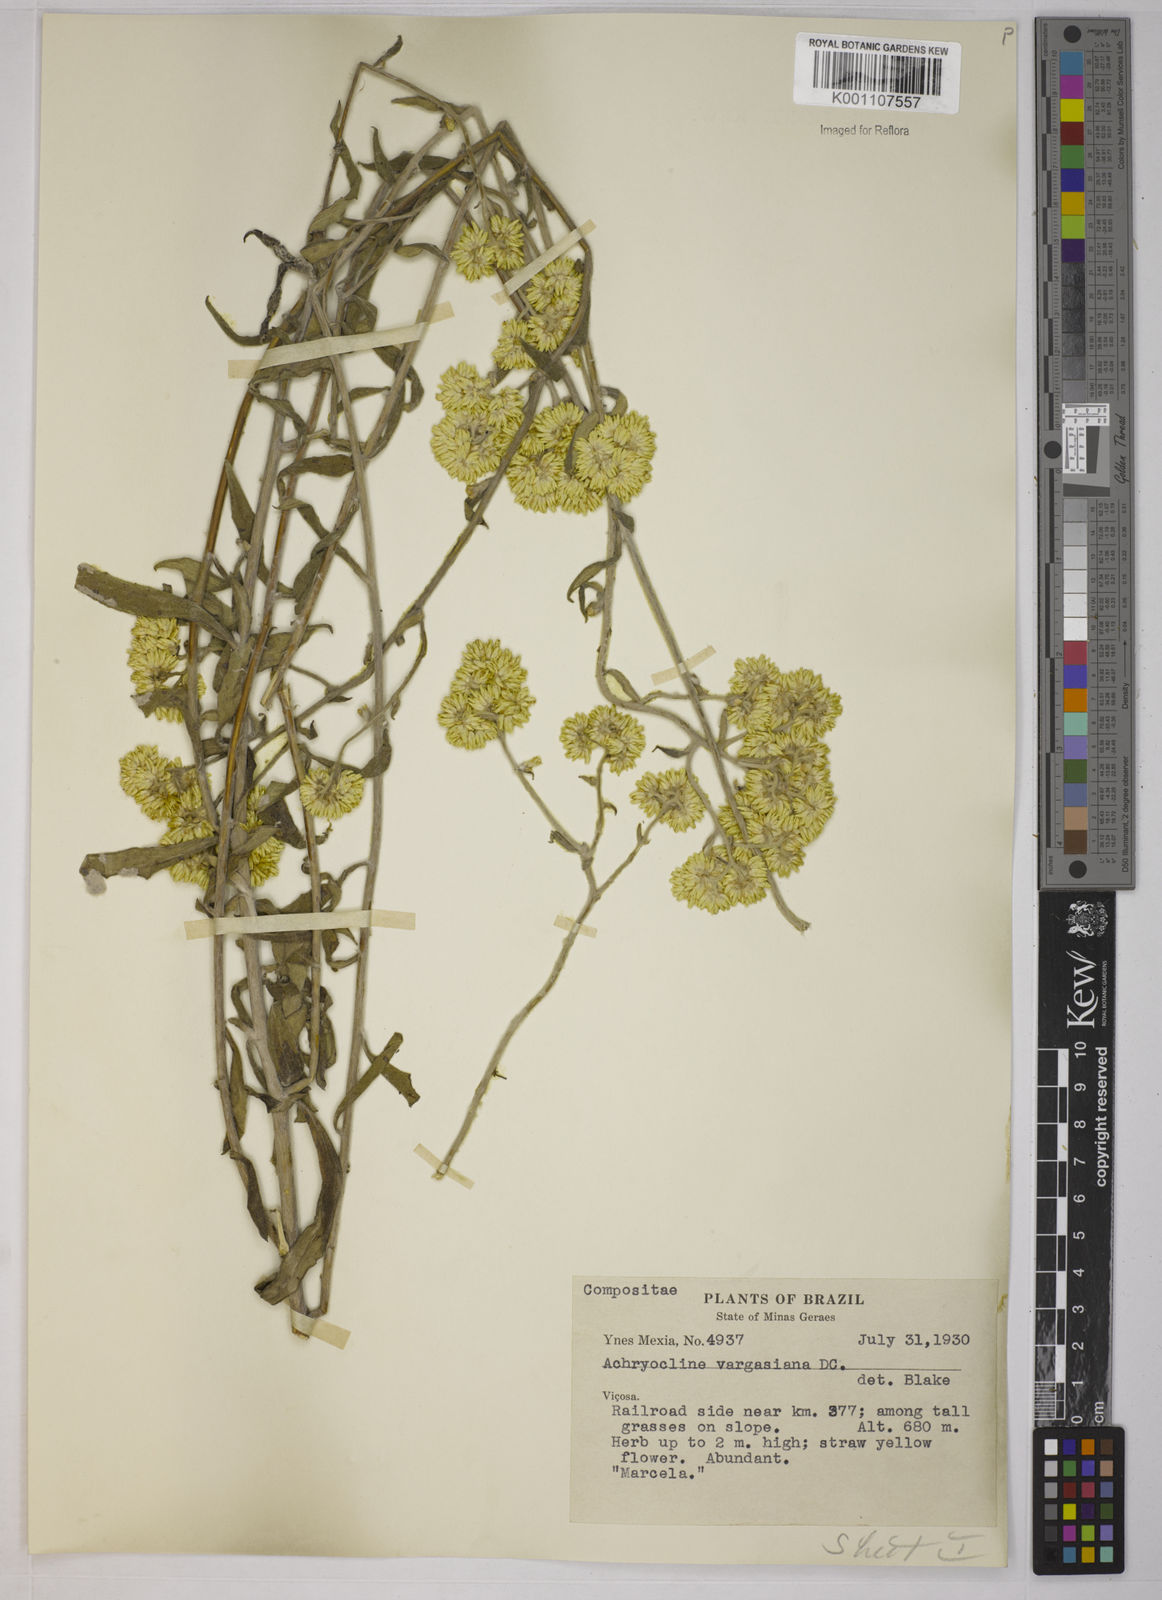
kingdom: Plantae
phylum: Tracheophyta
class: Magnoliopsida
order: Asterales
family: Asteraceae
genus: Achyrocline
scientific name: Achyrocline vargasiana
